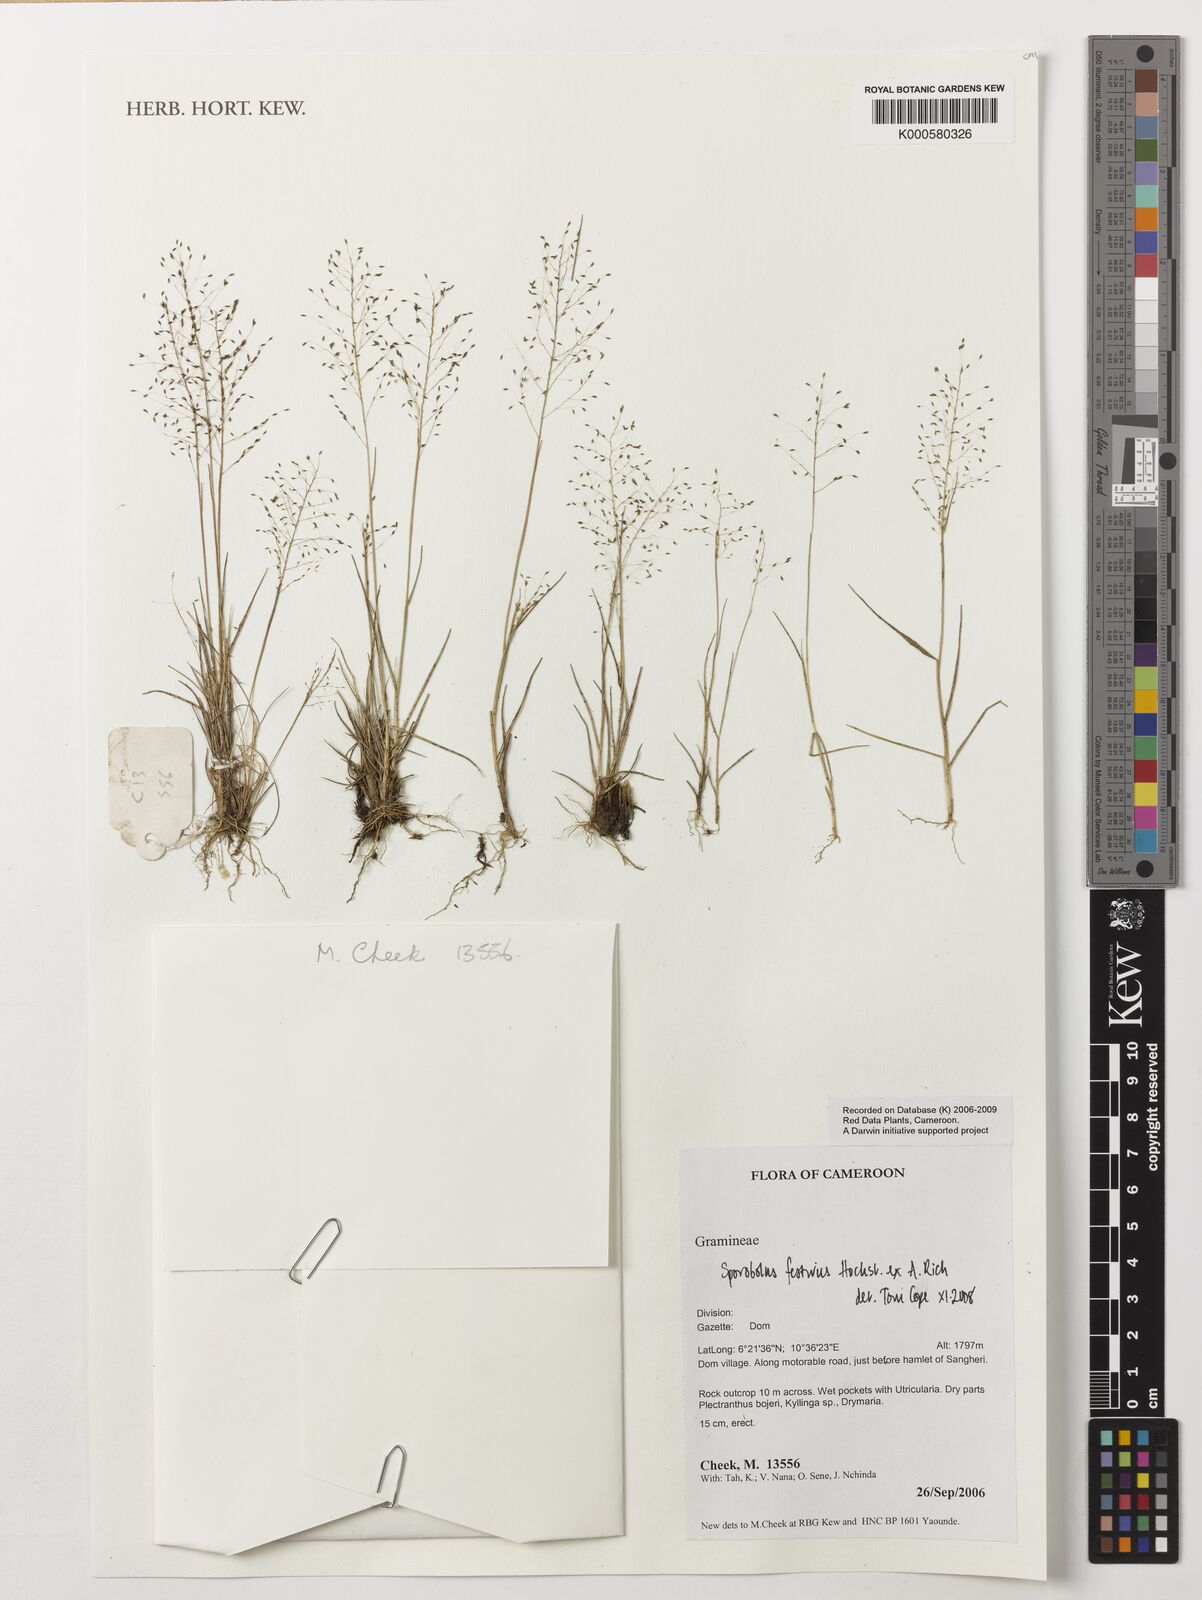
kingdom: Plantae
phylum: Tracheophyta
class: Liliopsida
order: Poales
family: Poaceae
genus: Sporobolus
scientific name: Sporobolus festivus
